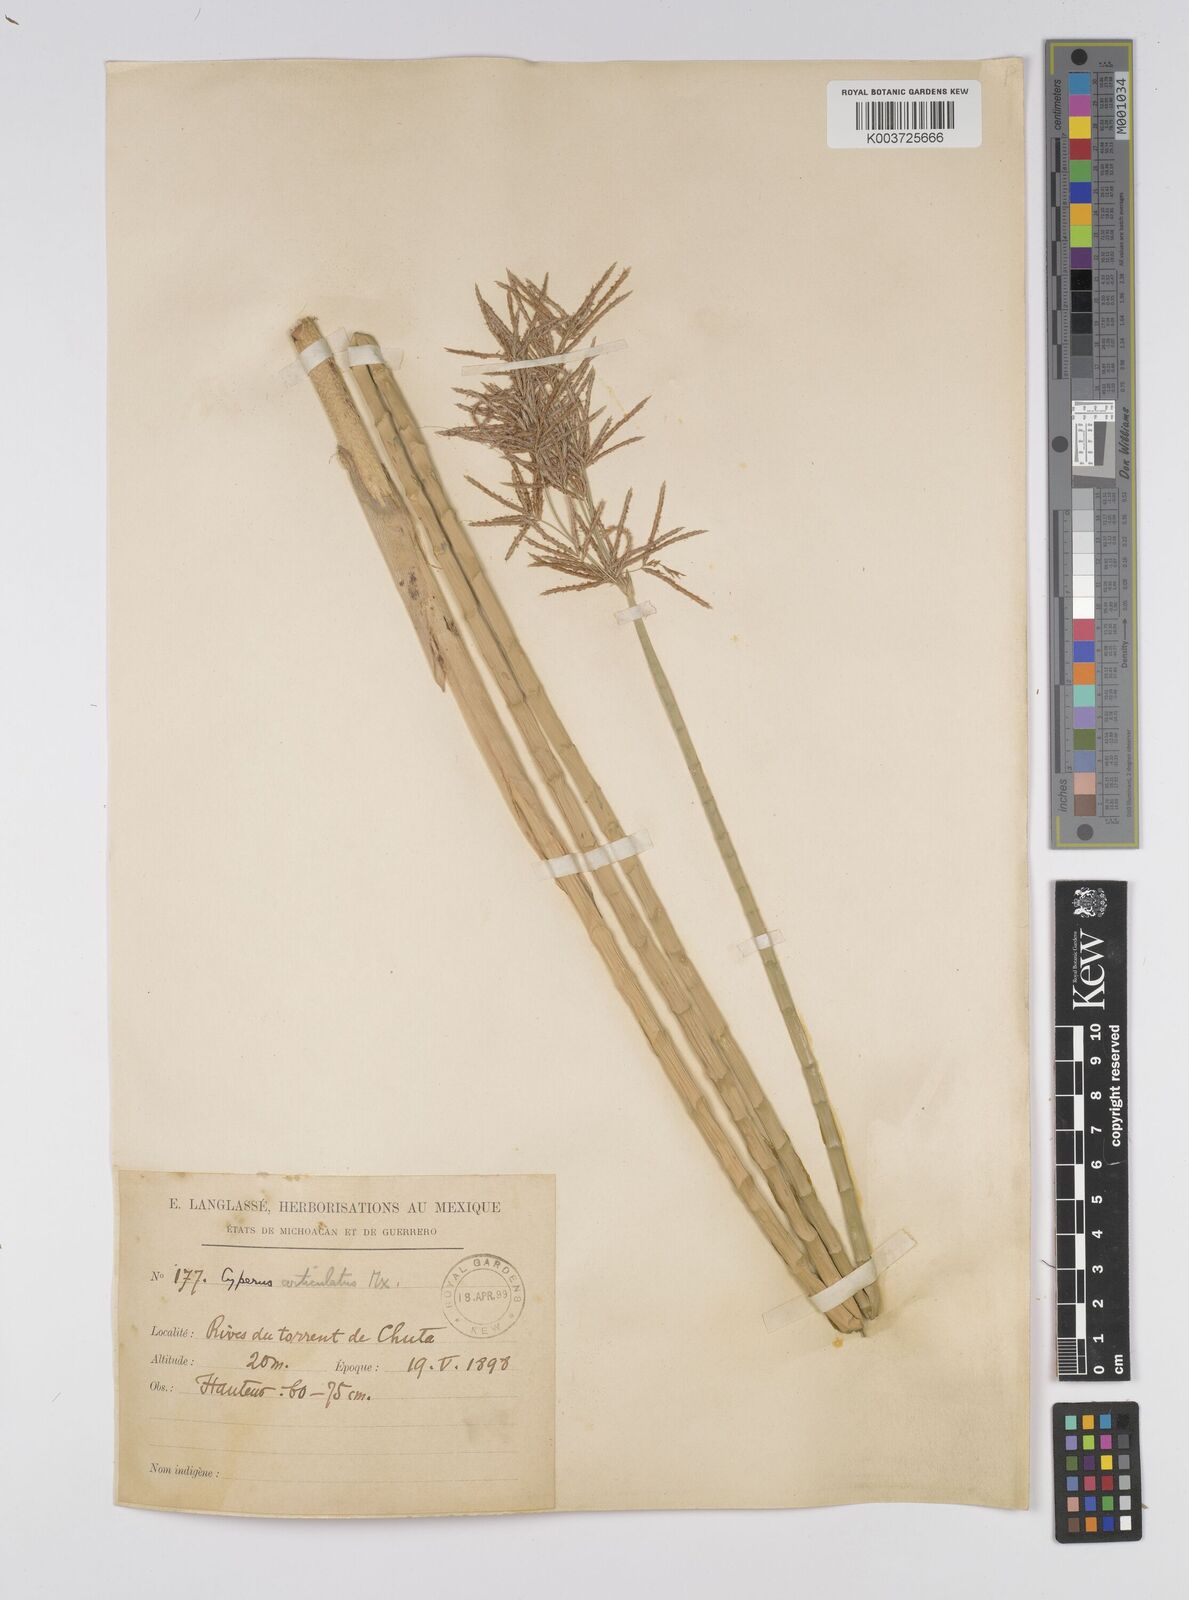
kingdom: Plantae
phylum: Tracheophyta
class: Liliopsida
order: Poales
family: Cyperaceae
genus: Cyperus
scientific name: Cyperus articulatus
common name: Jointed flatsedge
